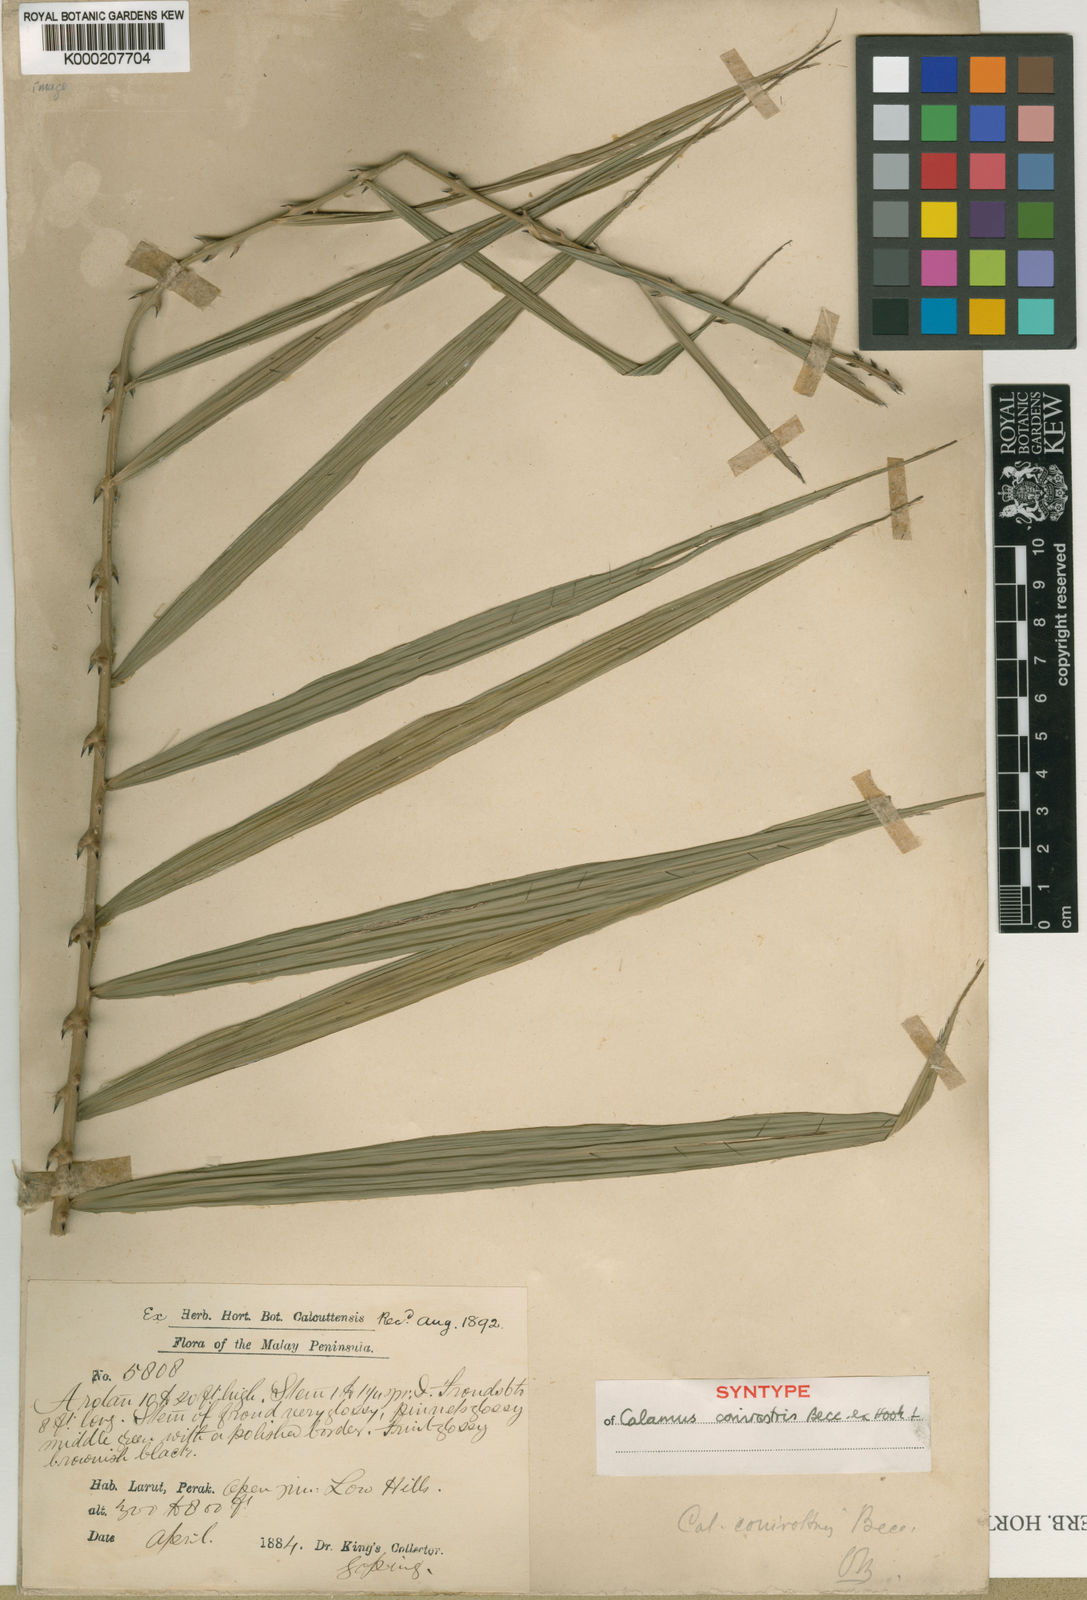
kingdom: Plantae
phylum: Tracheophyta
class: Liliopsida
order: Arecales
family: Arecaceae
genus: Calamus
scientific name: Calamus conirostris
